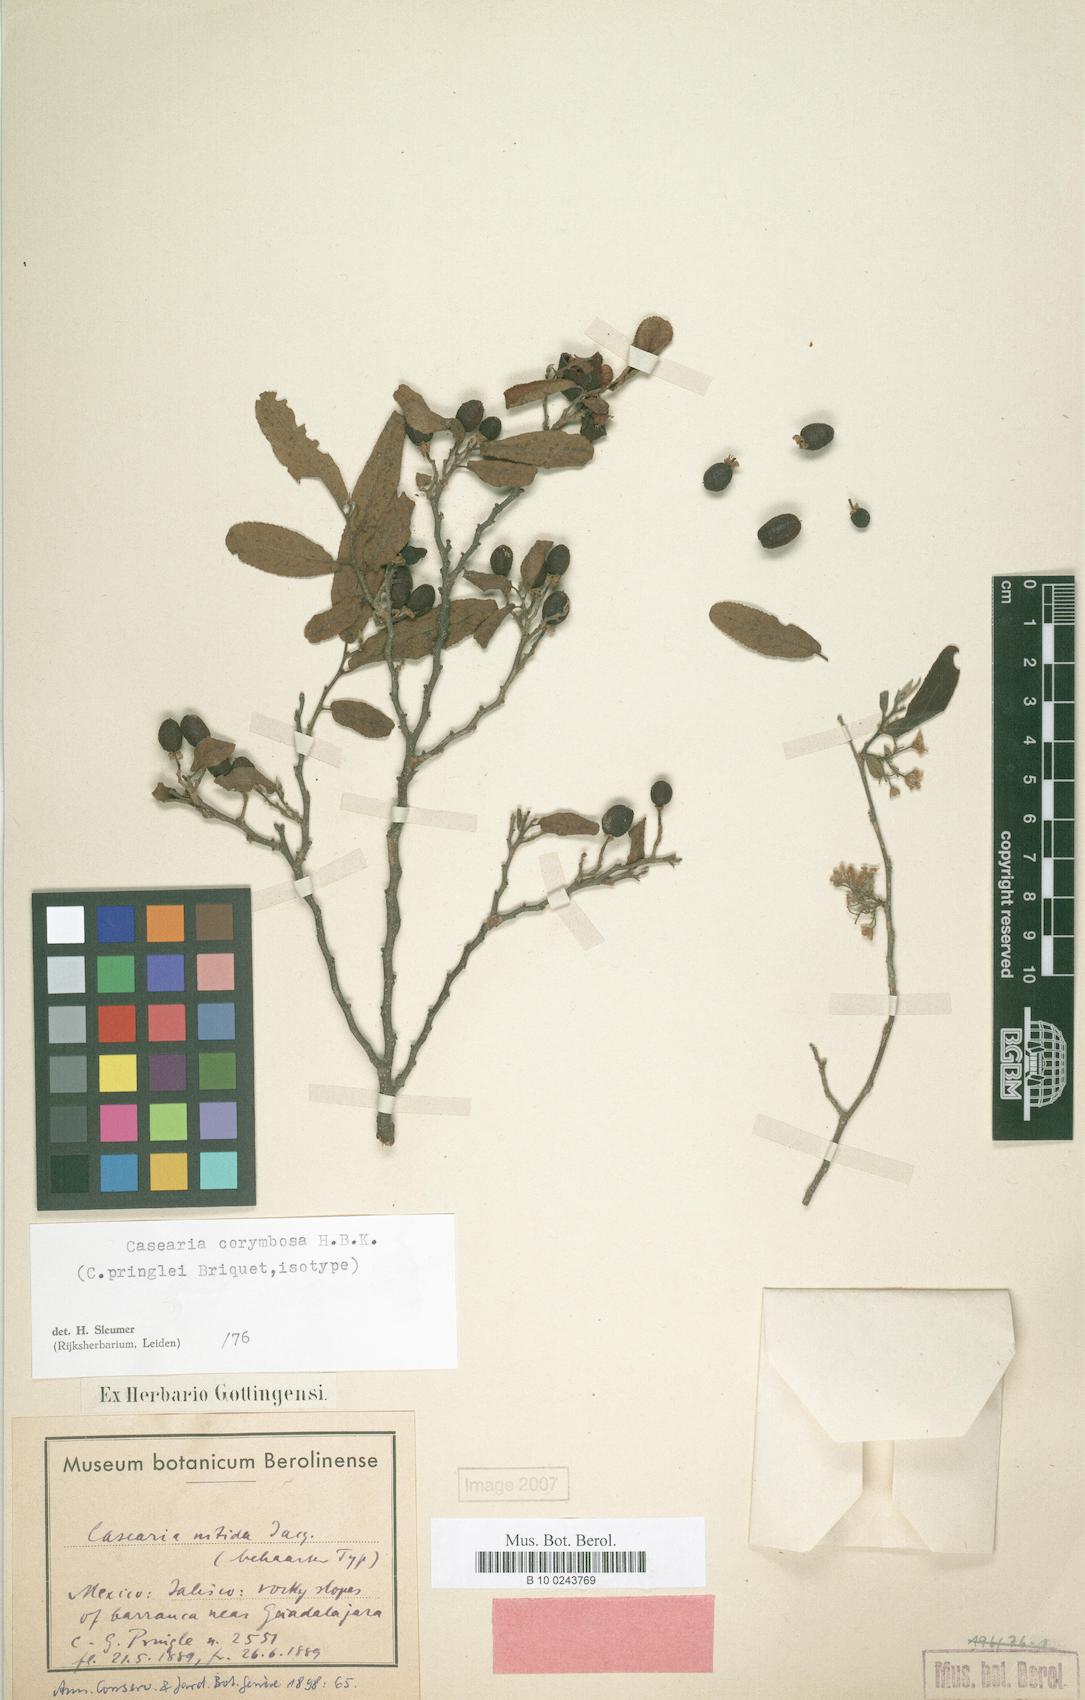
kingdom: Plantae
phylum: Tracheophyta
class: Magnoliopsida
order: Malpighiales
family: Salicaceae
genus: Casearia
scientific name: Casearia corymbosa
